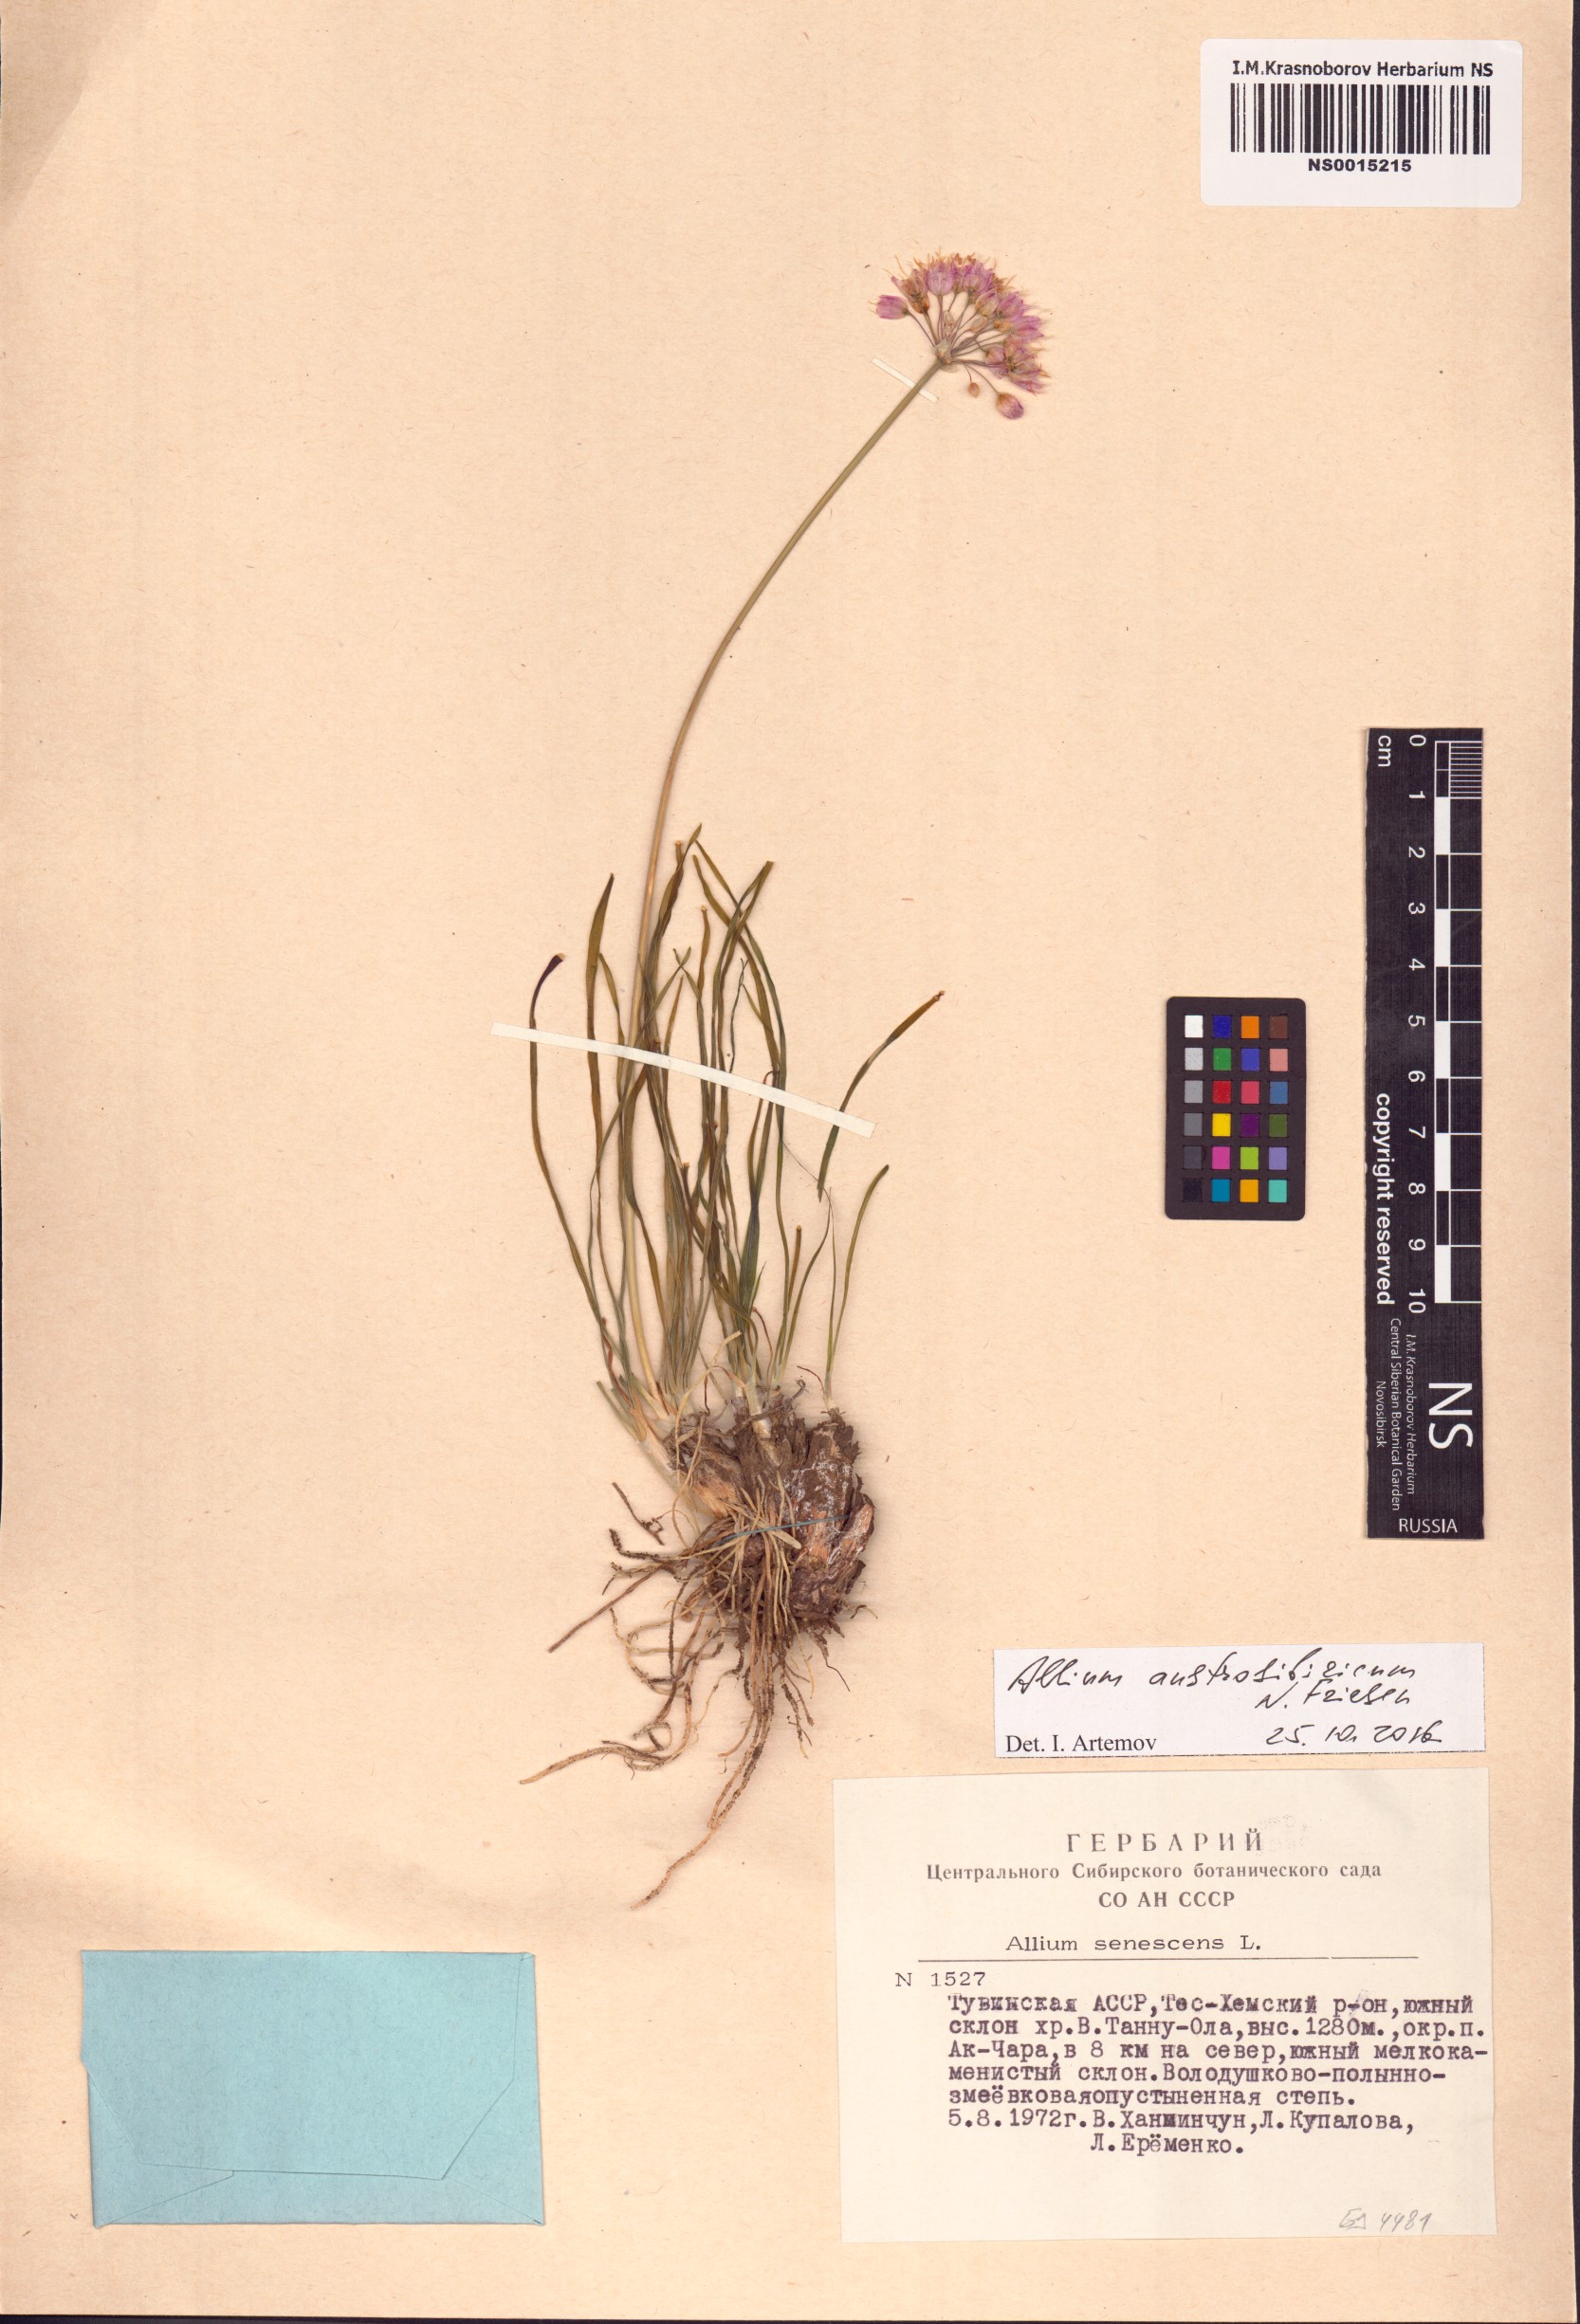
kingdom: Plantae
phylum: Tracheophyta
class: Liliopsida
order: Asparagales
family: Amaryllidaceae
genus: Allium
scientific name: Allium austrosibiricum
